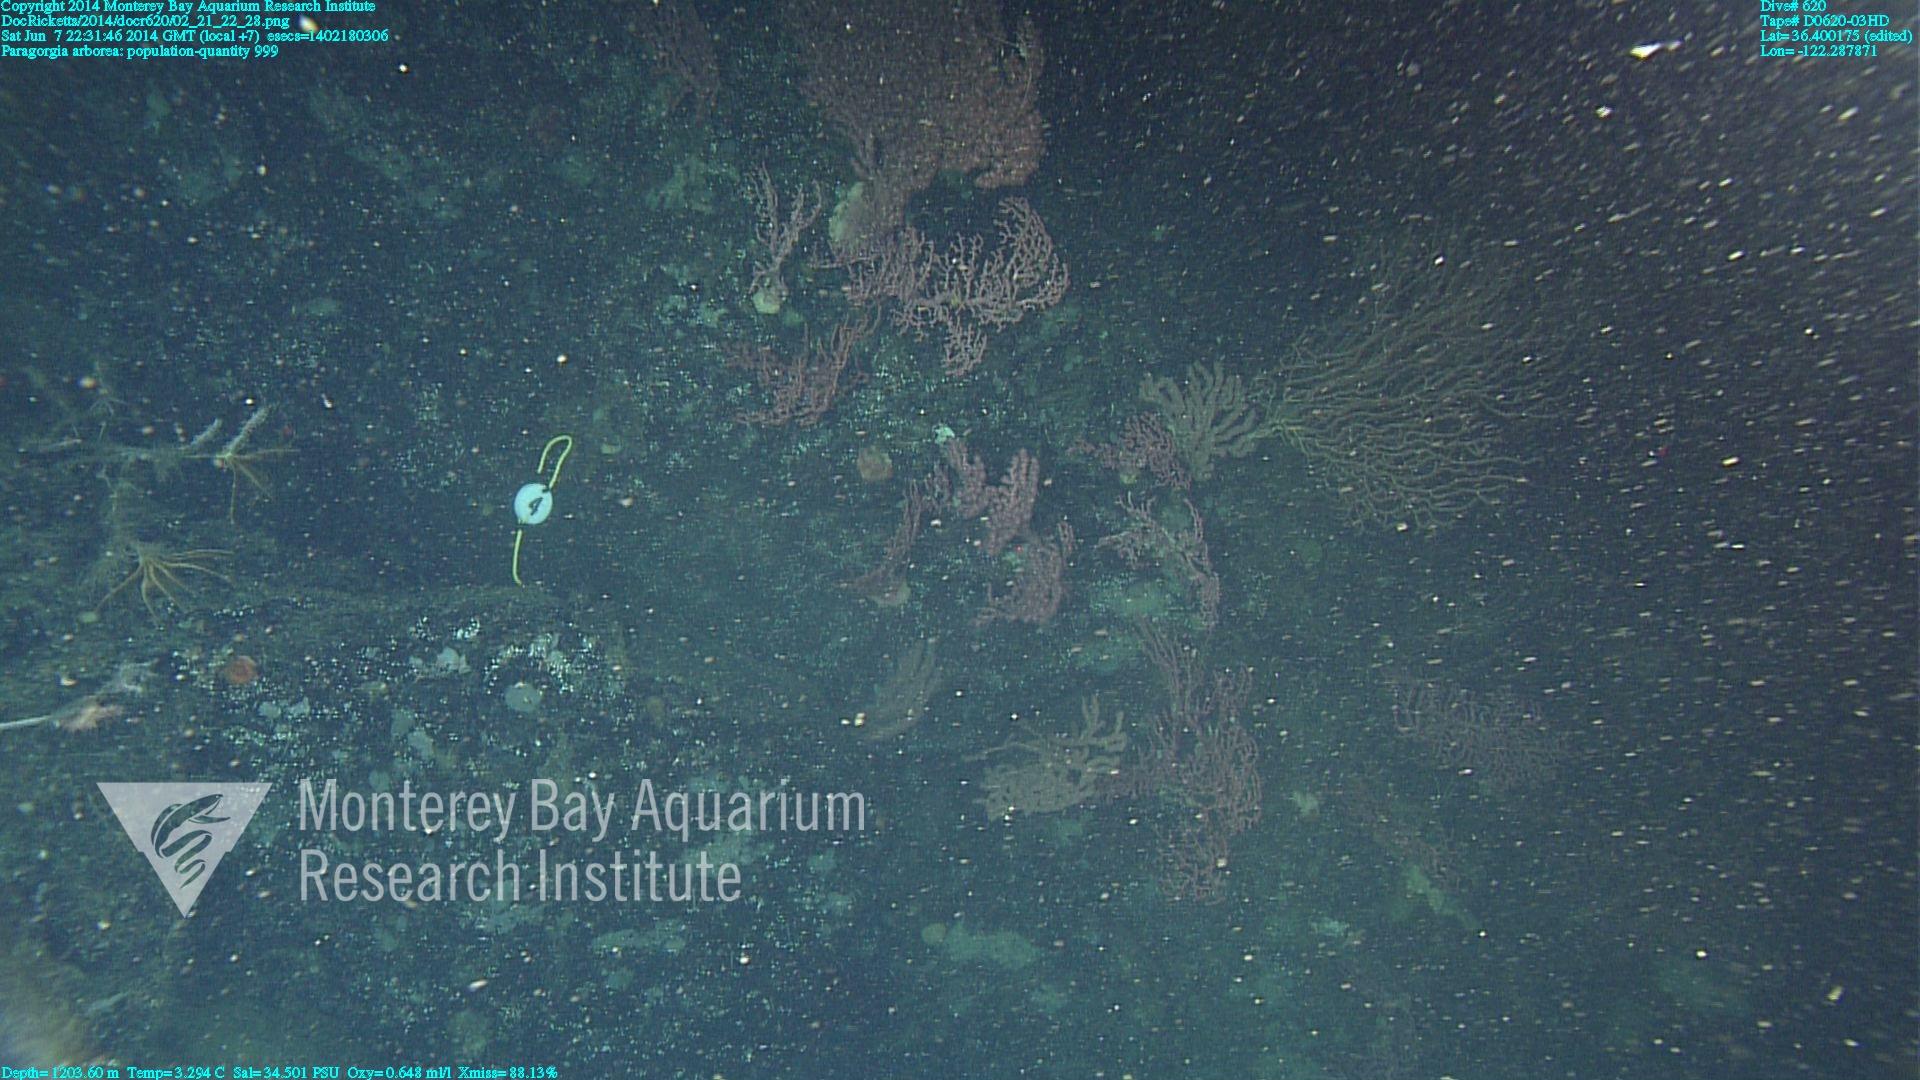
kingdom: Animalia
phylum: Cnidaria
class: Anthozoa
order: Scleralcyonacea
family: Coralliidae
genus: Paragorgia
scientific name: Paragorgia arborea
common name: Bubble gum coral
